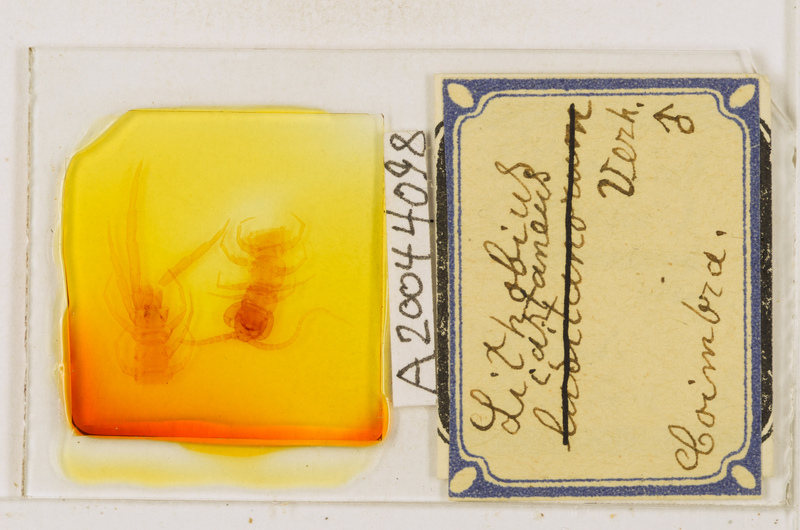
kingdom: Animalia
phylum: Arthropoda
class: Chilopoda
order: Lithobiomorpha
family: Lithobiidae
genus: Lithobius
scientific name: Lithobius castaneus
